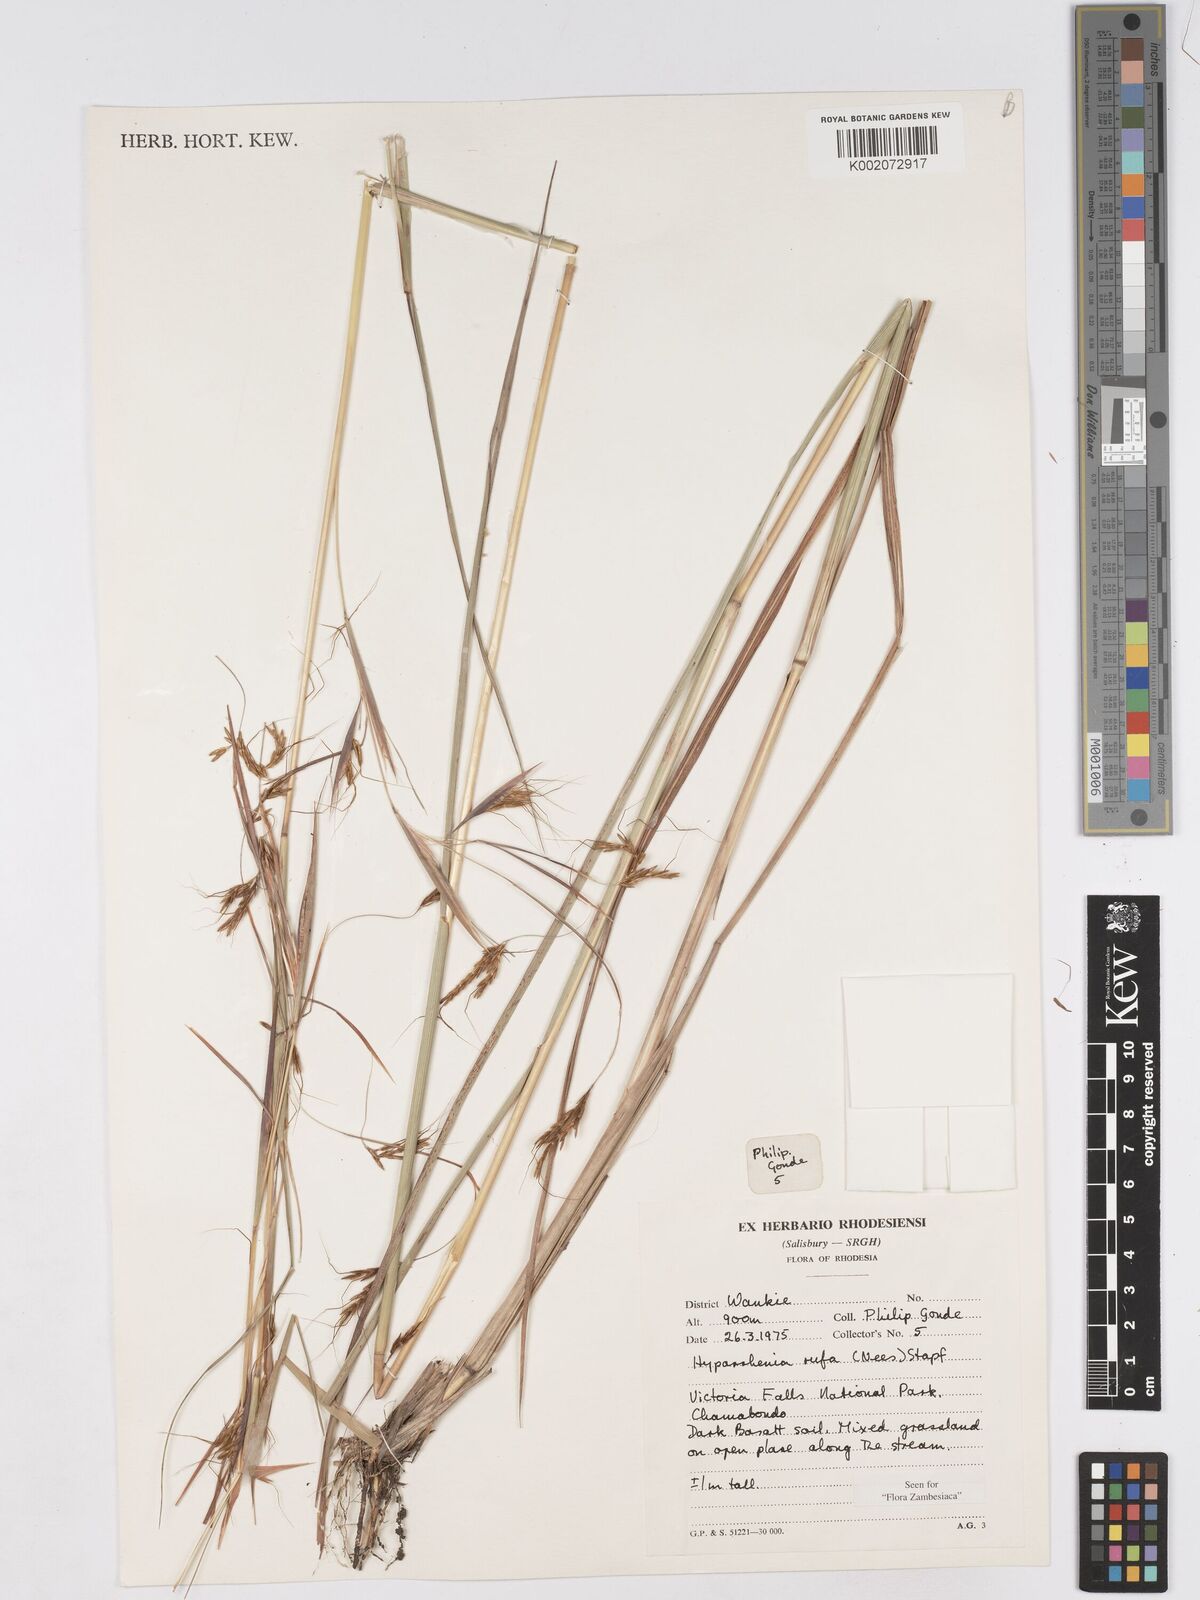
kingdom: Plantae
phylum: Tracheophyta
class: Liliopsida
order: Poales
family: Poaceae
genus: Hyparrhenia
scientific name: Hyparrhenia rufa
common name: Jaraguagrass
